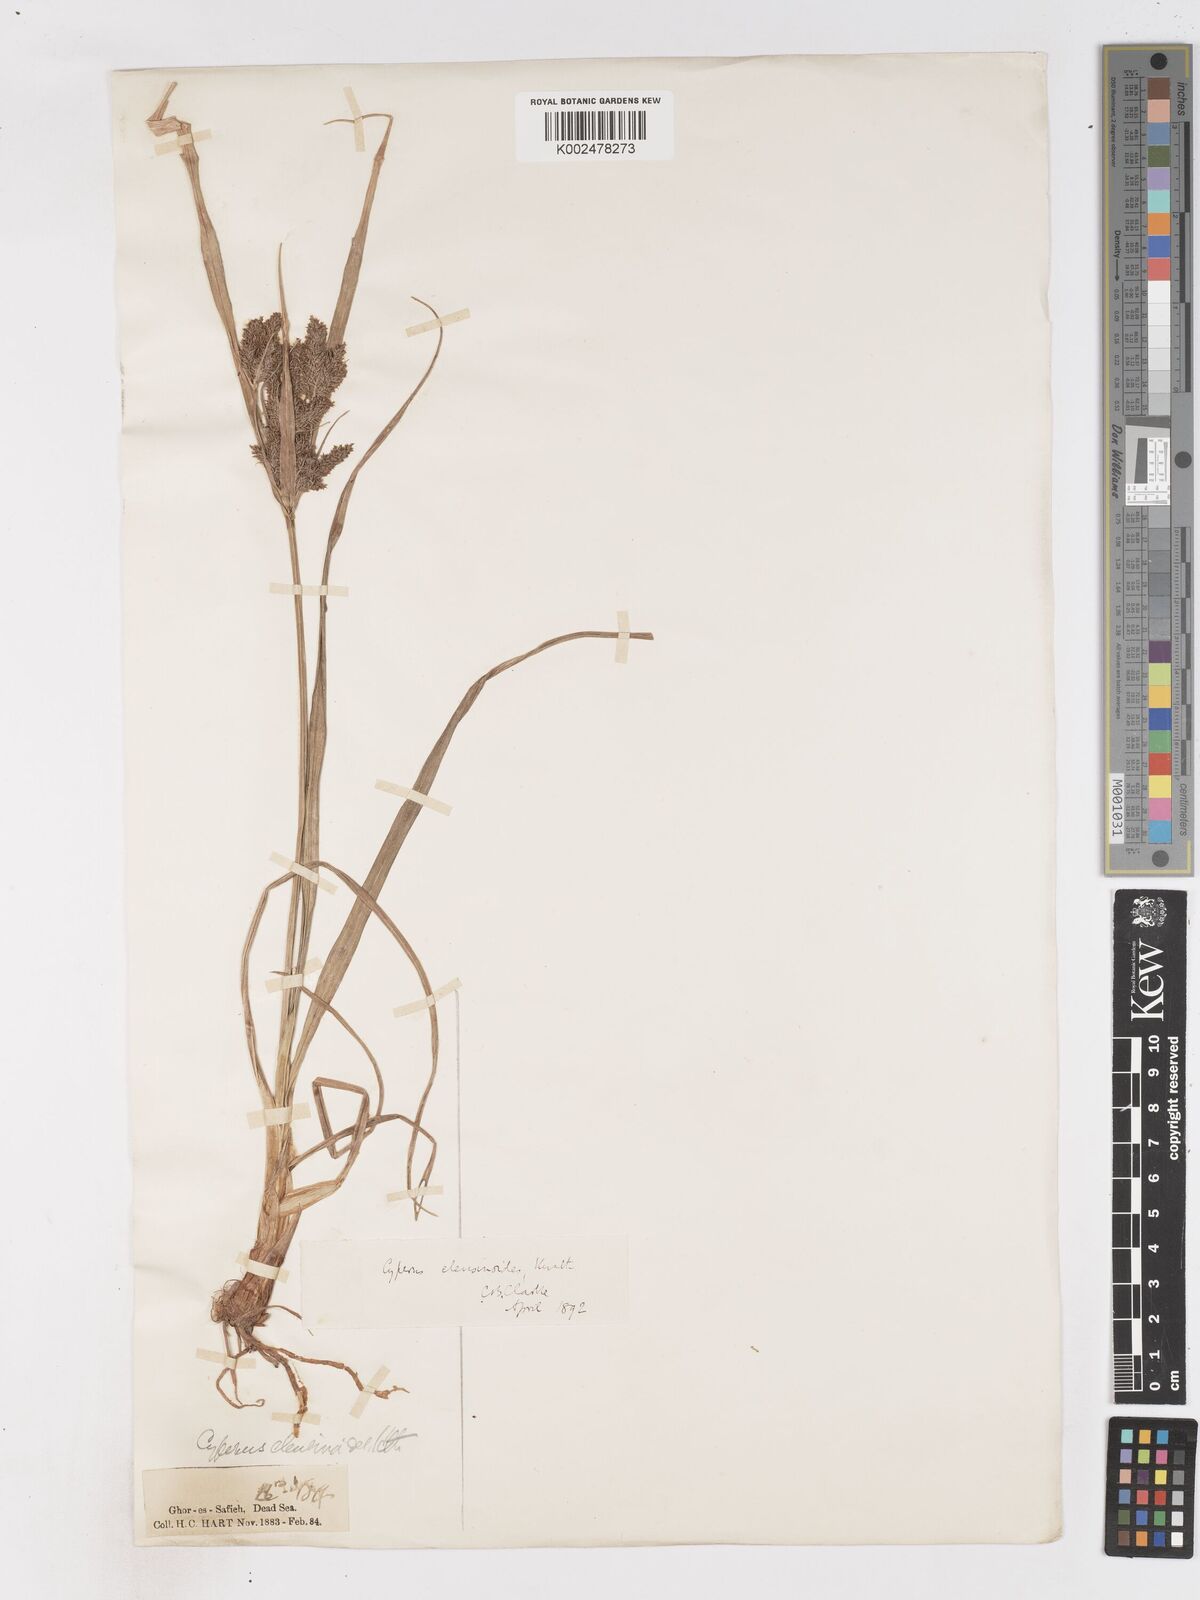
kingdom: Plantae
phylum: Tracheophyta
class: Liliopsida
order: Poales
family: Cyperaceae
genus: Cyperus
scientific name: Cyperus nutans
